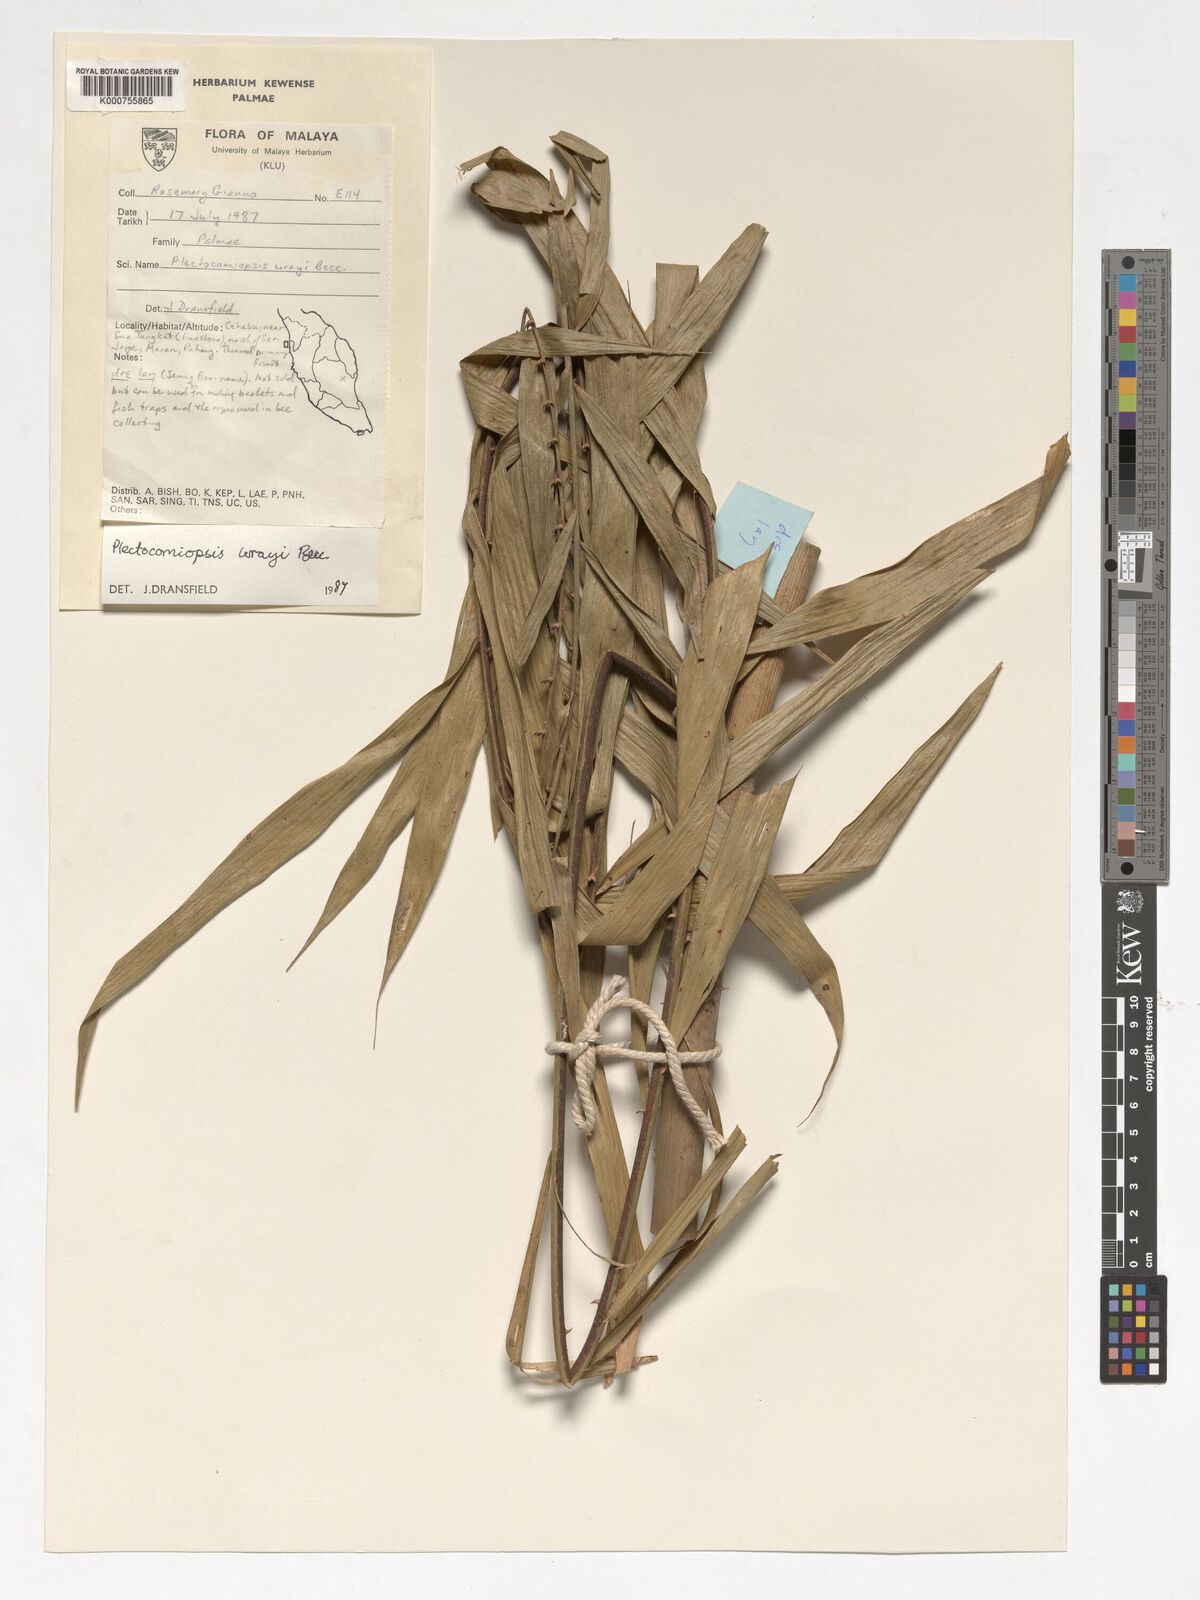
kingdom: Plantae
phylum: Tracheophyta
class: Liliopsida
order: Arecales
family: Arecaceae
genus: Plectocomiopsis
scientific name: Plectocomiopsis wrayi
